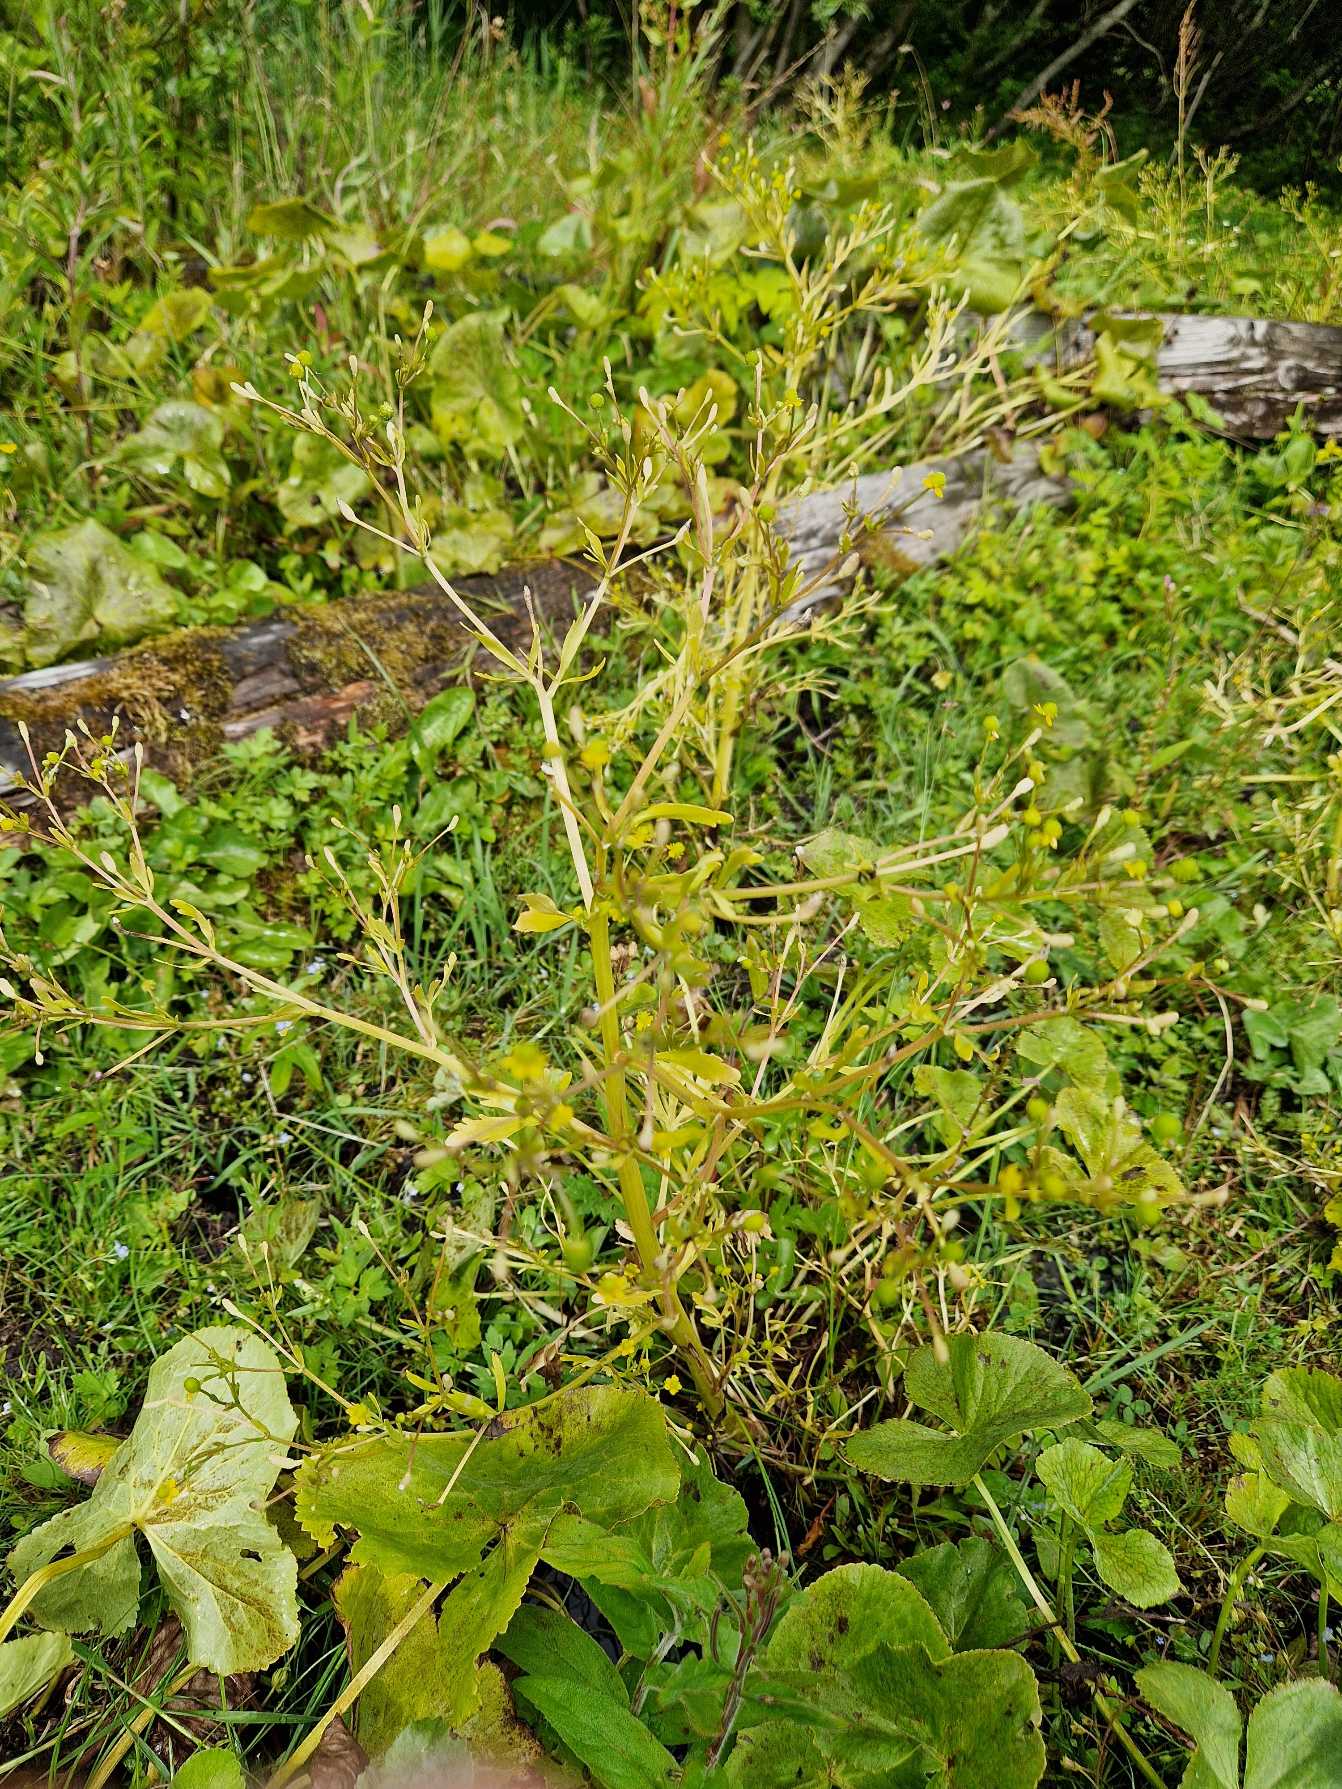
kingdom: Plantae
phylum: Tracheophyta
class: Magnoliopsida
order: Ranunculales
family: Ranunculaceae
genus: Ranunculus
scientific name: Ranunculus sceleratus
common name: Tigger-ranunkel
